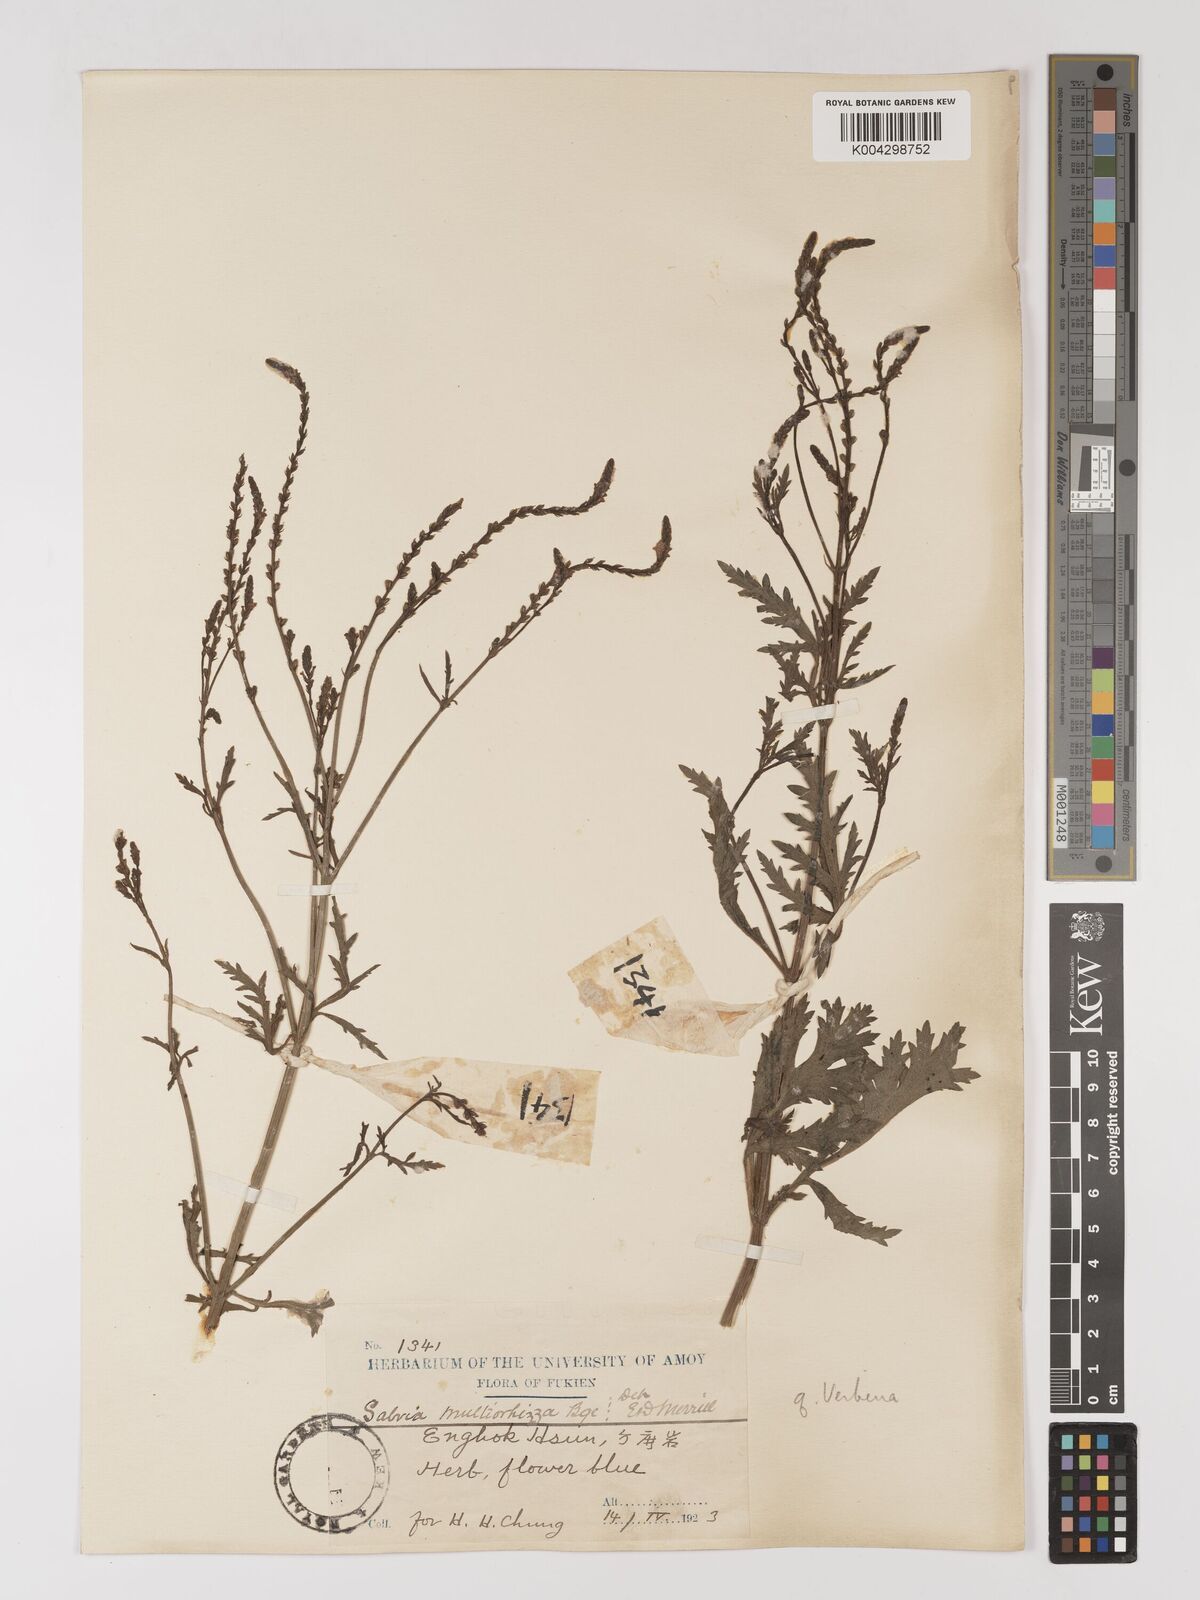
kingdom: Plantae
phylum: Tracheophyta
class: Magnoliopsida
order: Lamiales
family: Verbenaceae
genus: Verbena
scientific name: Verbena officinalis
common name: Vervain
